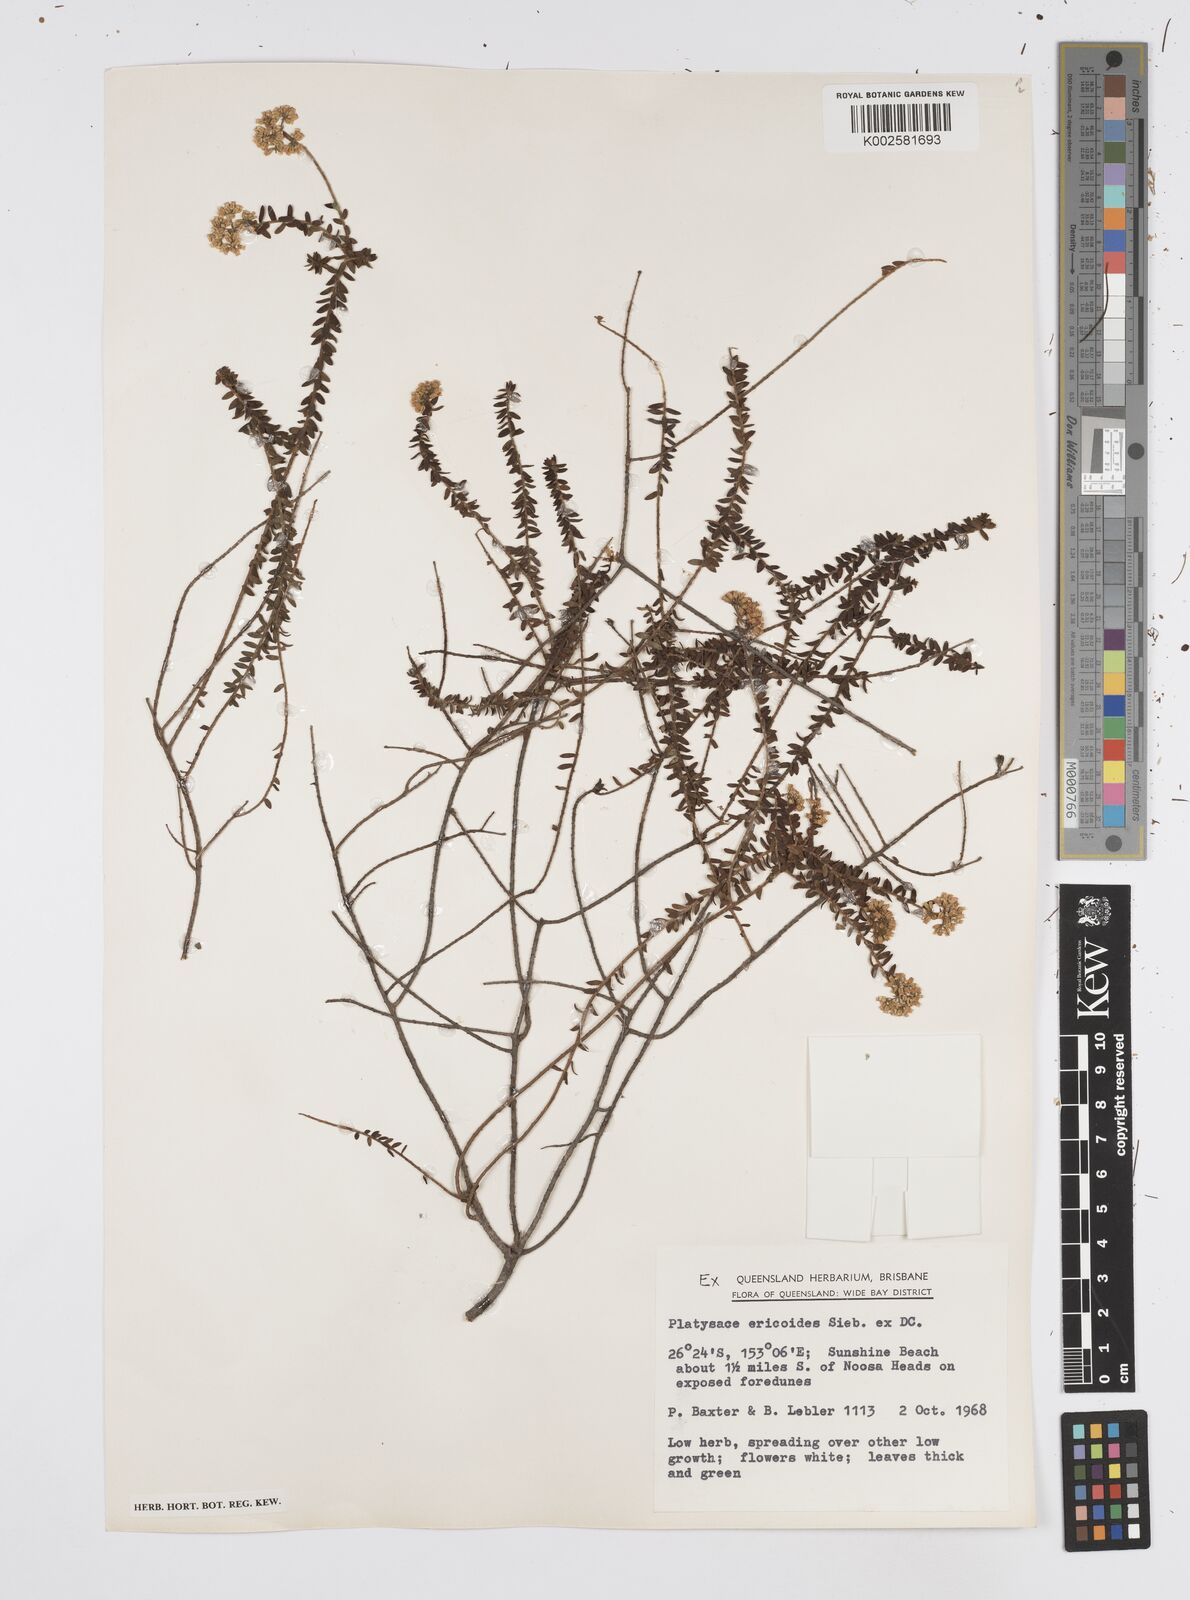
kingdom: Plantae
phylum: Tracheophyta
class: Magnoliopsida
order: Apiales
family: Apiaceae
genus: Platysace
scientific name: Platysace ericoides
